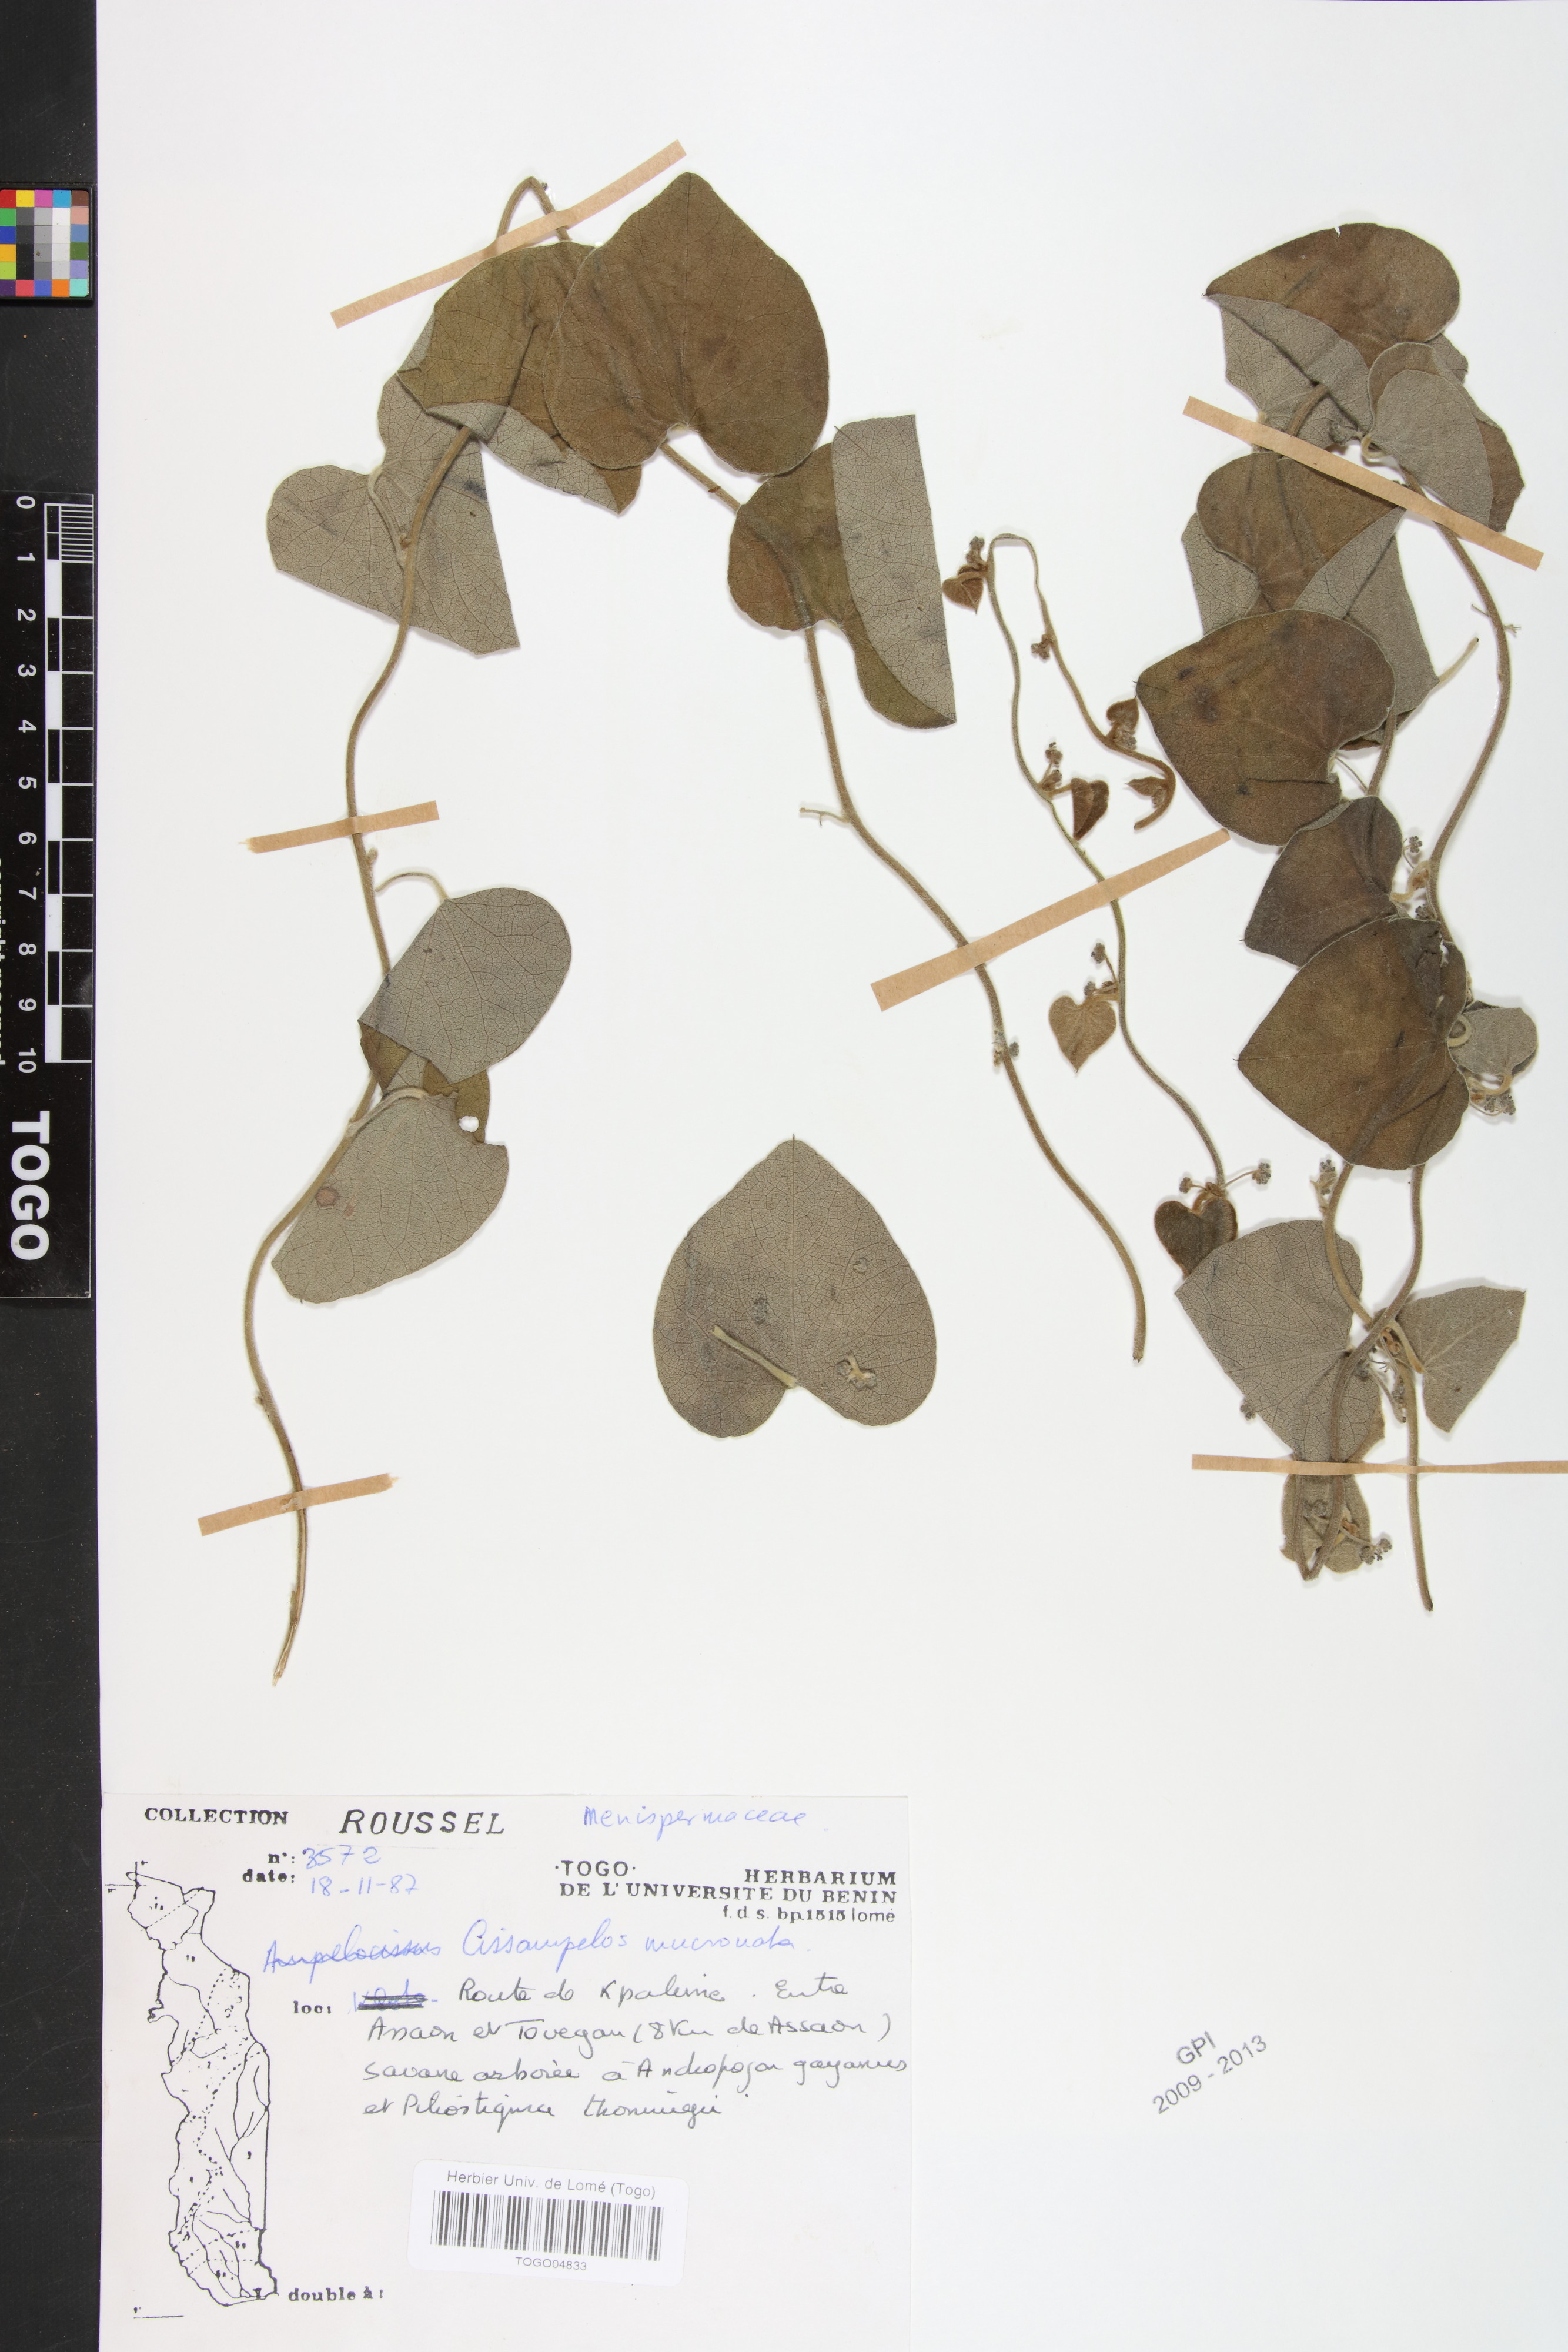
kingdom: Plantae
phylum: Tracheophyta
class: Magnoliopsida
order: Ranunculales
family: Menispermaceae
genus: Cissampelos
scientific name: Cissampelos mucronata
